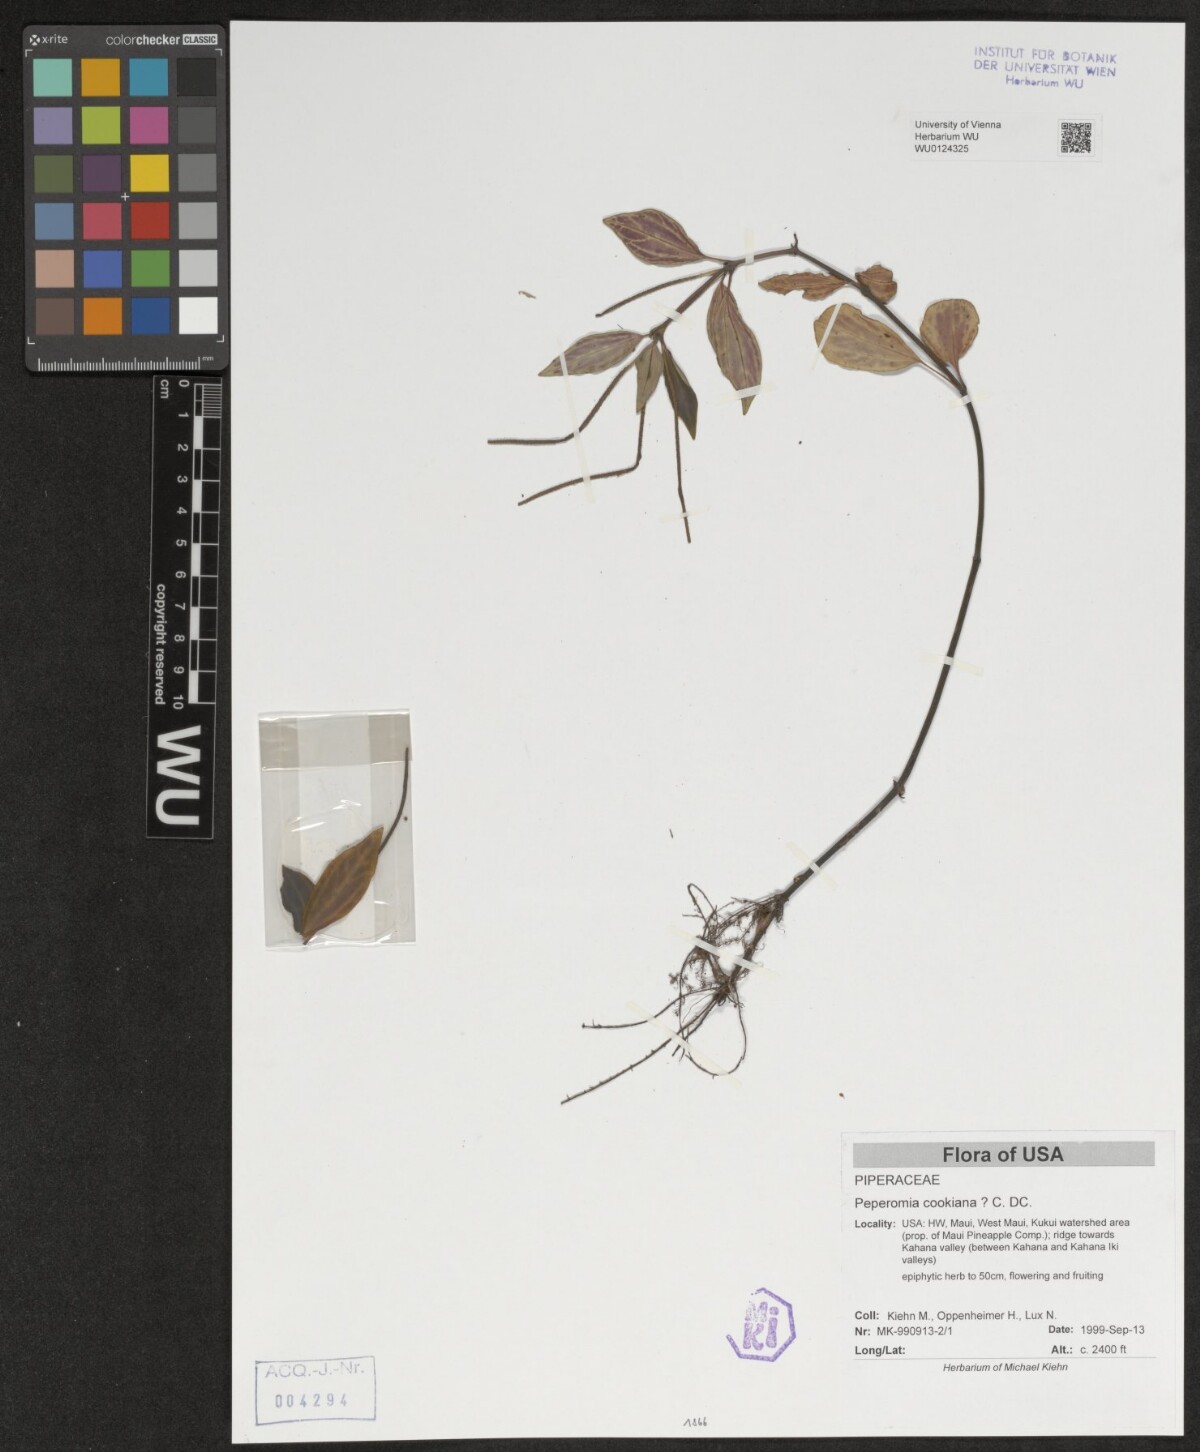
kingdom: Plantae
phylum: Tracheophyta
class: Magnoliopsida
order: Piperales
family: Piperaceae
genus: Peperomia
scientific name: Peperomia cookiana
